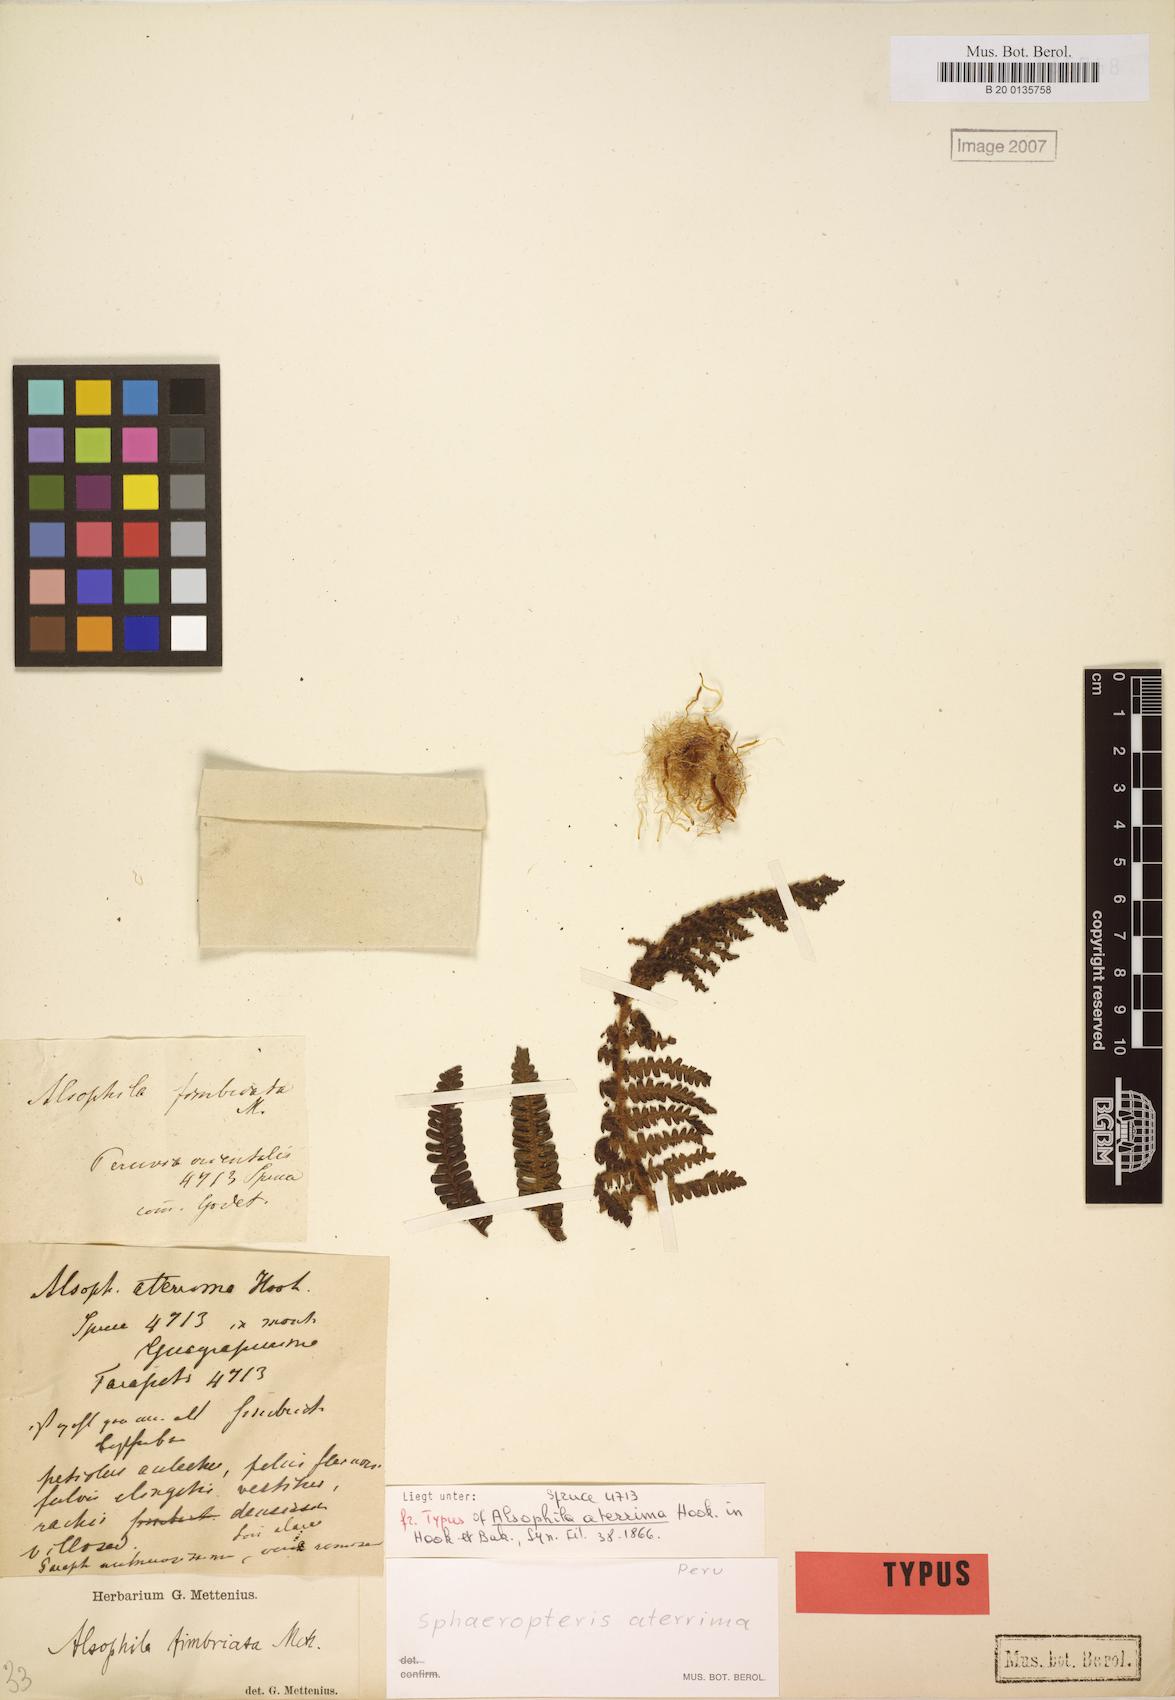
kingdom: Plantae
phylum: Tracheophyta
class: Polypodiopsida
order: Cyatheales
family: Cyatheaceae
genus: Cyathea
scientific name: Cyathea aterrima
